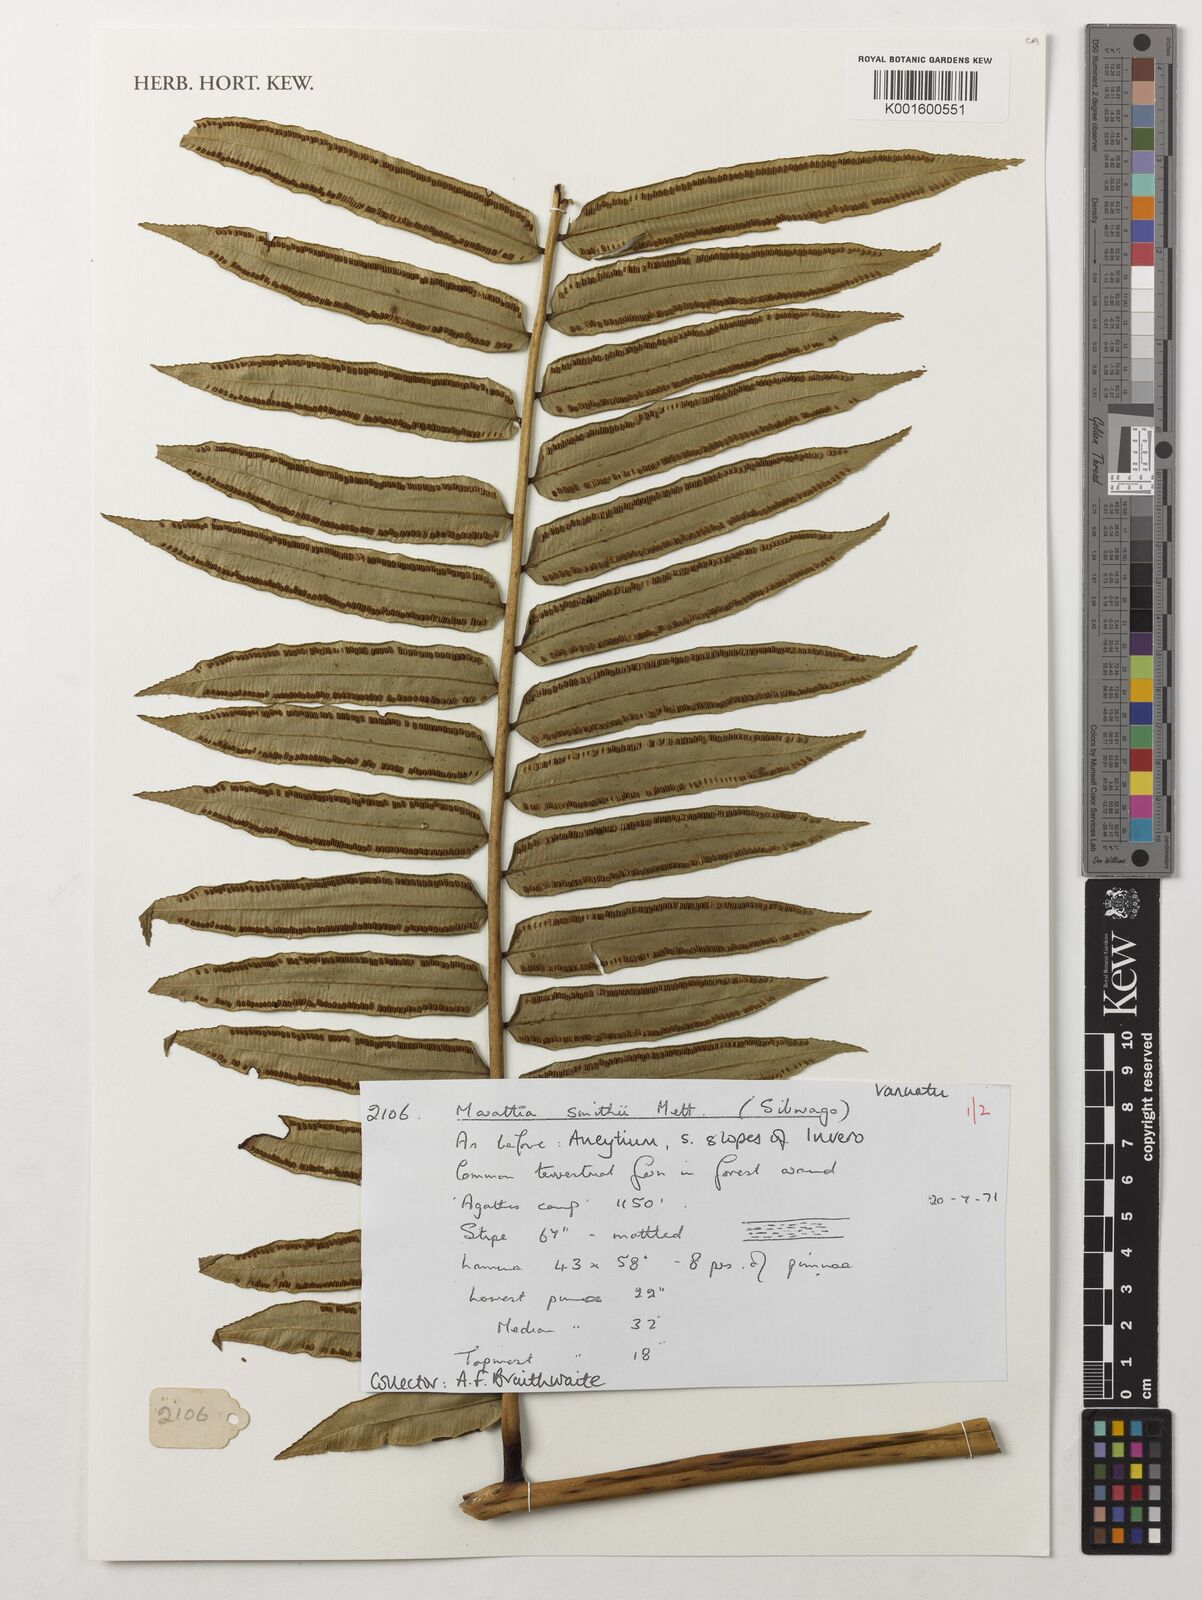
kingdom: Plantae
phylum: Tracheophyta
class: Polypodiopsida
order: Marattiales
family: Marattiaceae
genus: Ptisana
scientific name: Ptisana smithii
